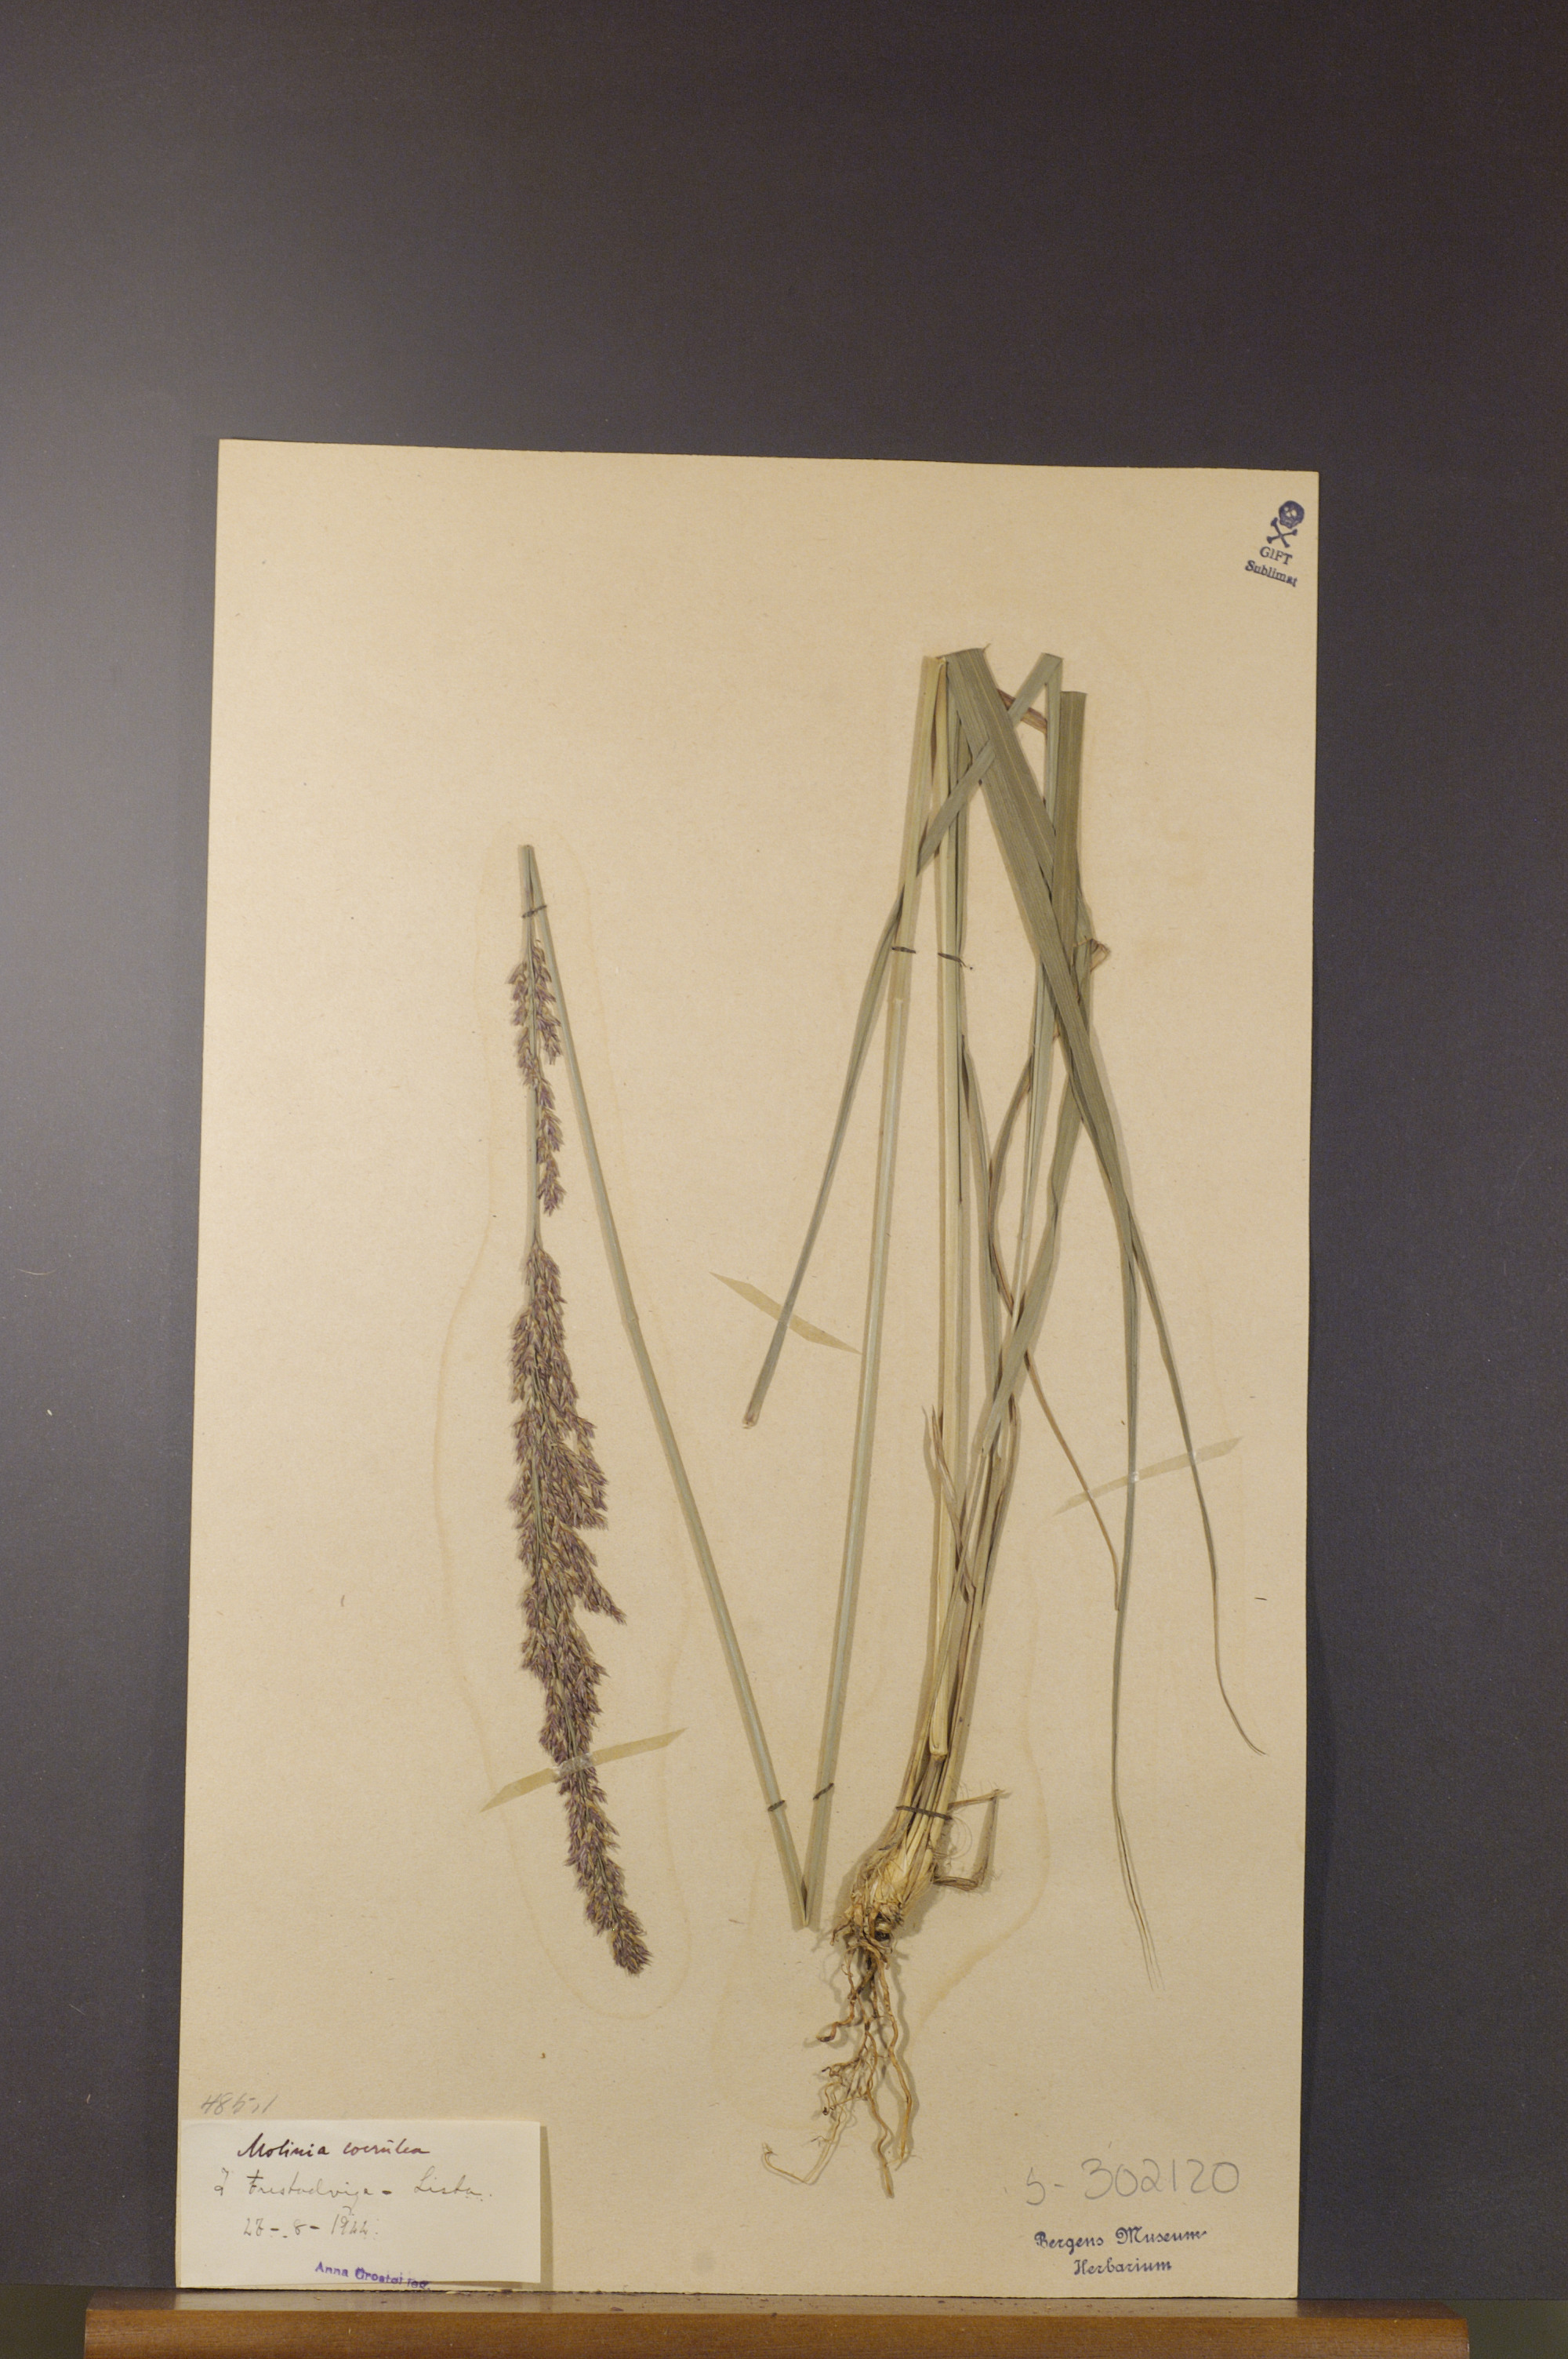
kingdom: Plantae
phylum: Tracheophyta
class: Liliopsida
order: Poales
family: Poaceae
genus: Molinia
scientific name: Molinia caerulea
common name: Purple moor-grass
